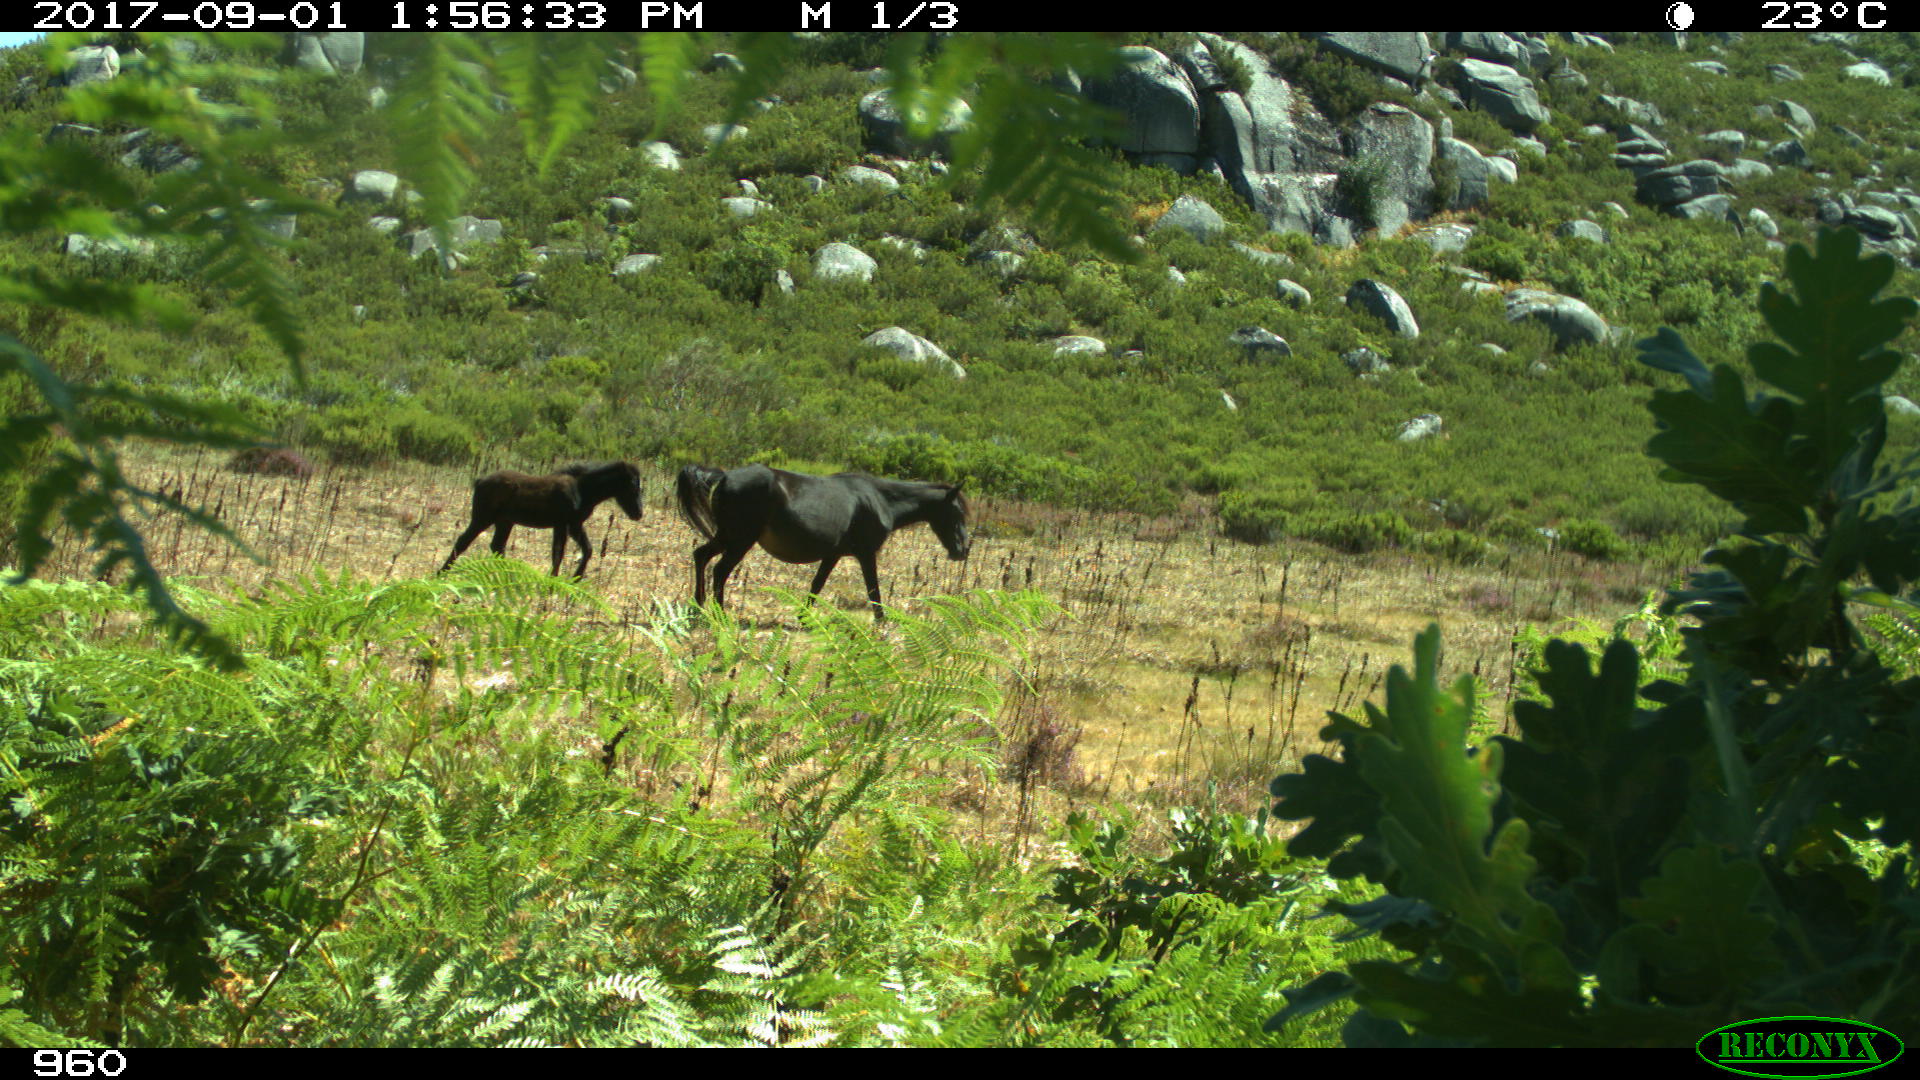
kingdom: Animalia
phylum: Chordata
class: Mammalia
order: Perissodactyla
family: Equidae
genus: Equus
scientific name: Equus caballus
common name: Horse
